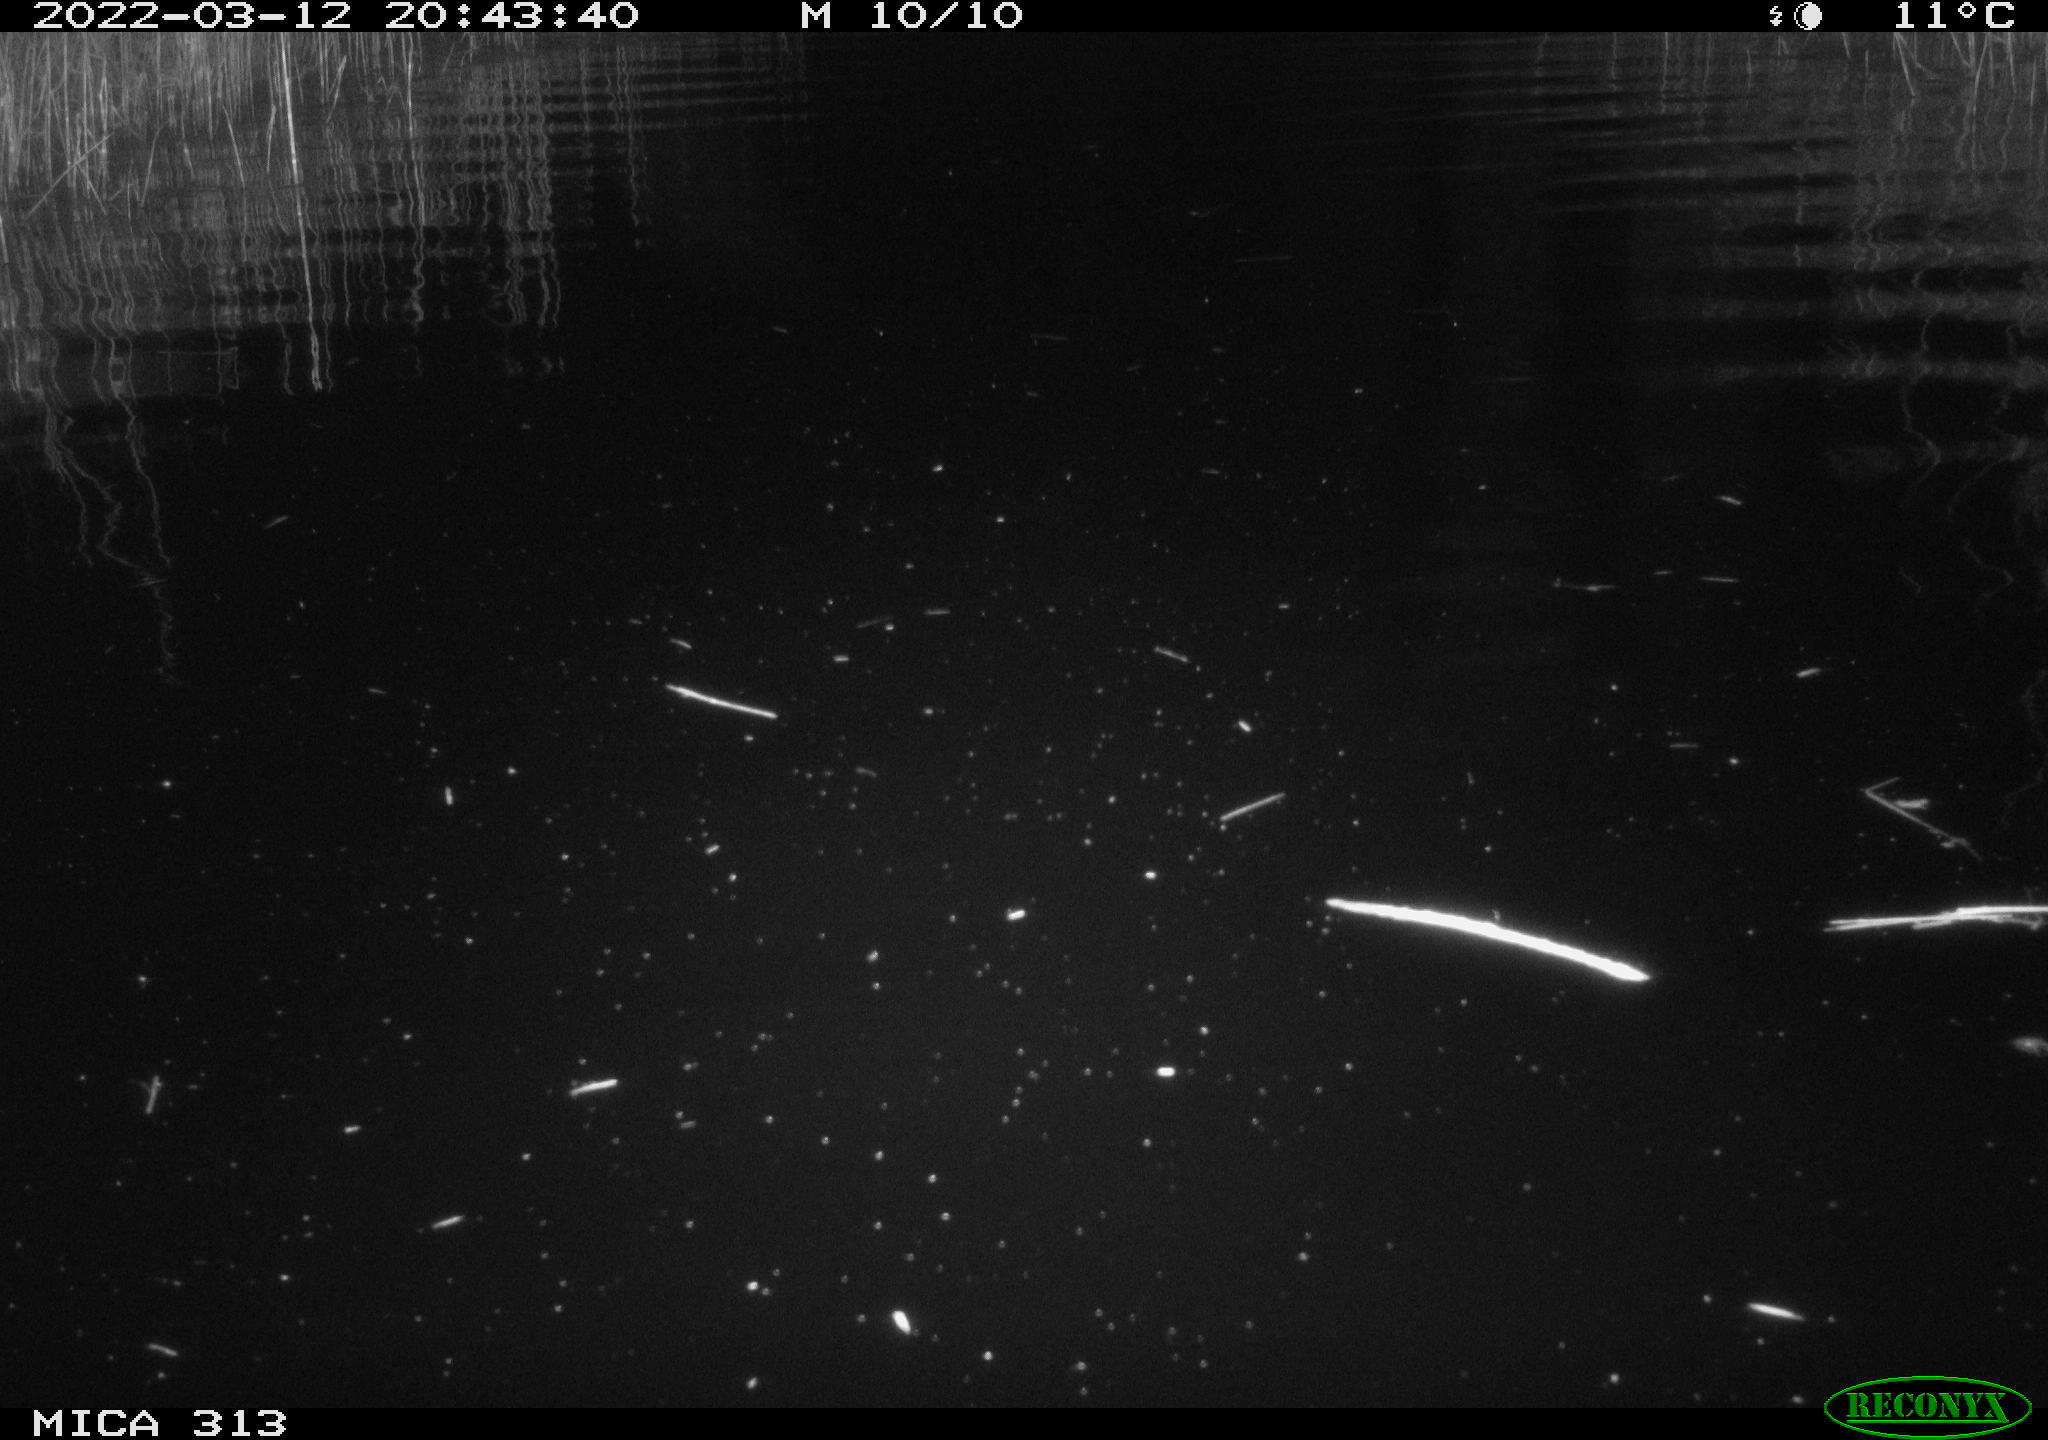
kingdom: Animalia
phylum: Chordata
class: Mammalia
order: Rodentia
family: Cricetidae
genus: Ondatra
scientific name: Ondatra zibethicus
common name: Muskrat
